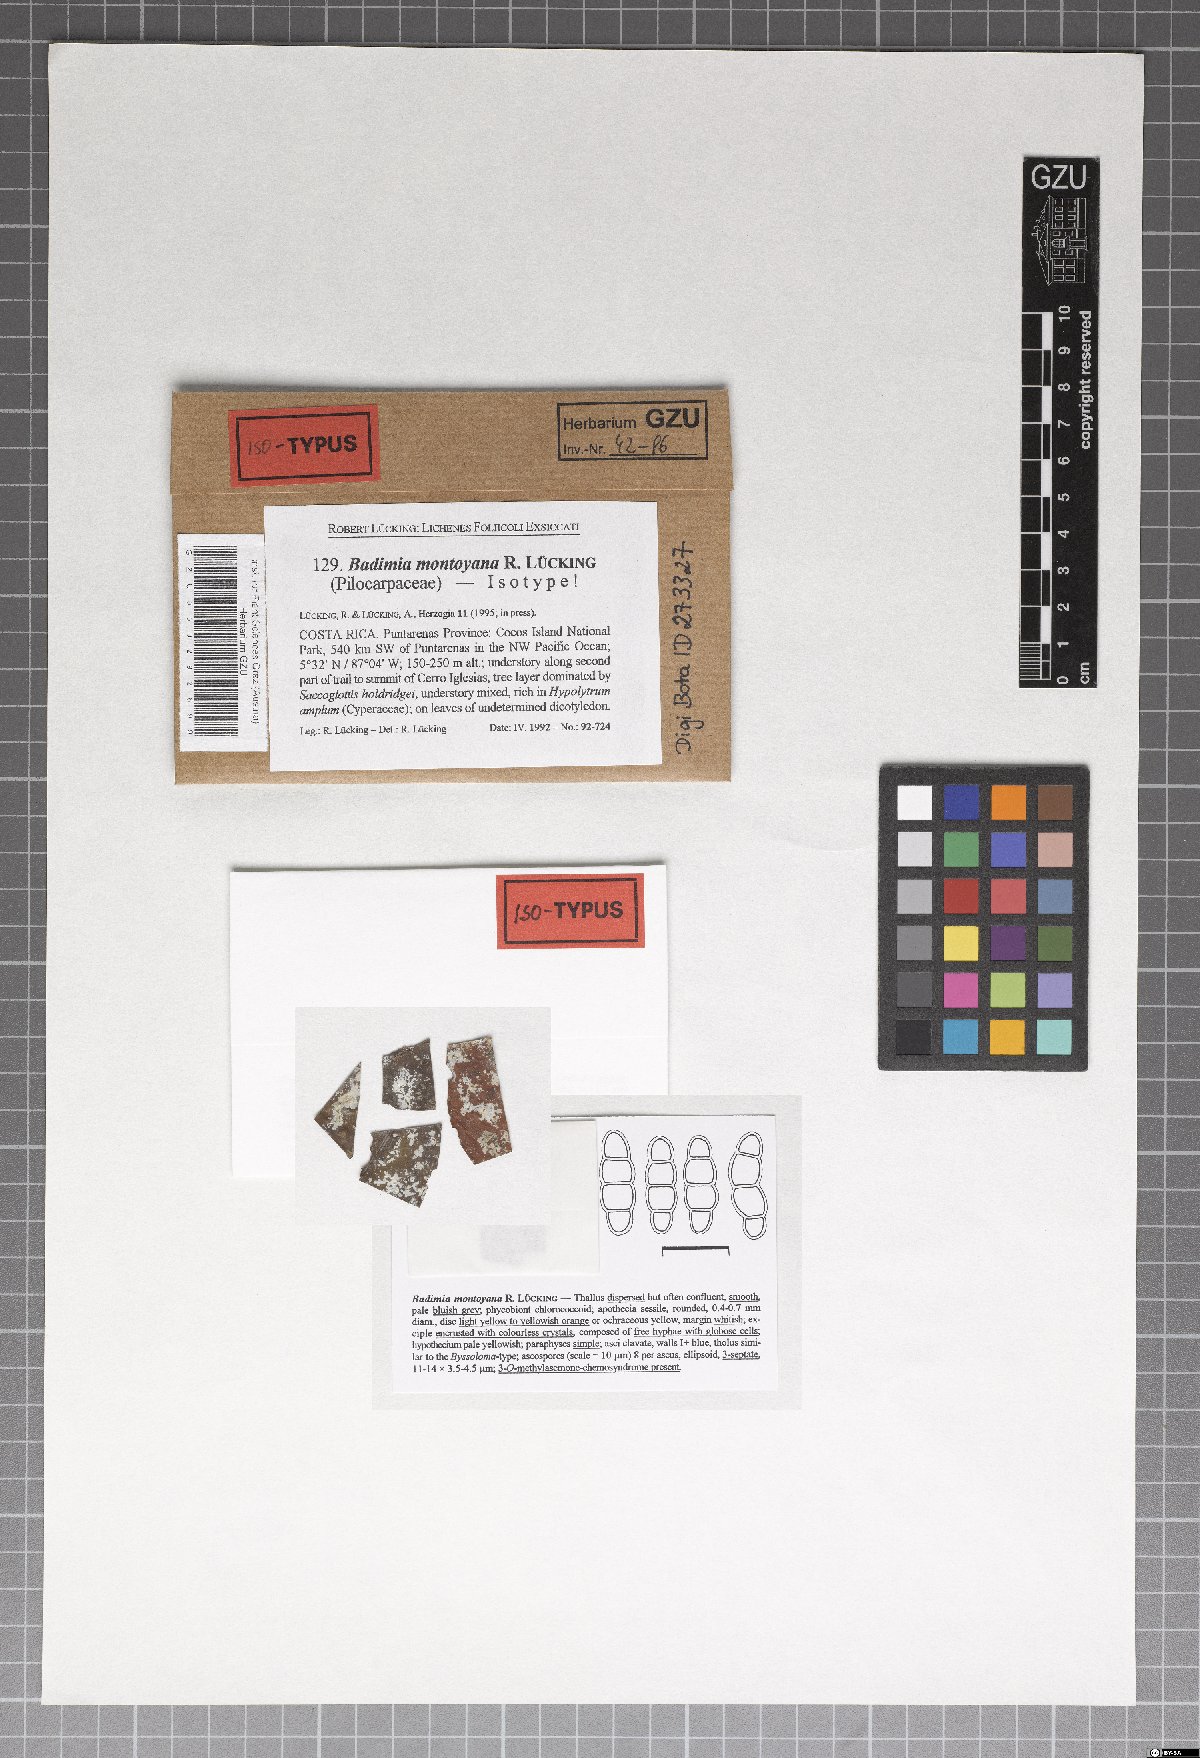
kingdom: Fungi
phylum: Ascomycota
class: Lecanoromycetes
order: Lecanorales
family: Ramalinaceae
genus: Badimia
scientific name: Badimia montoyana
